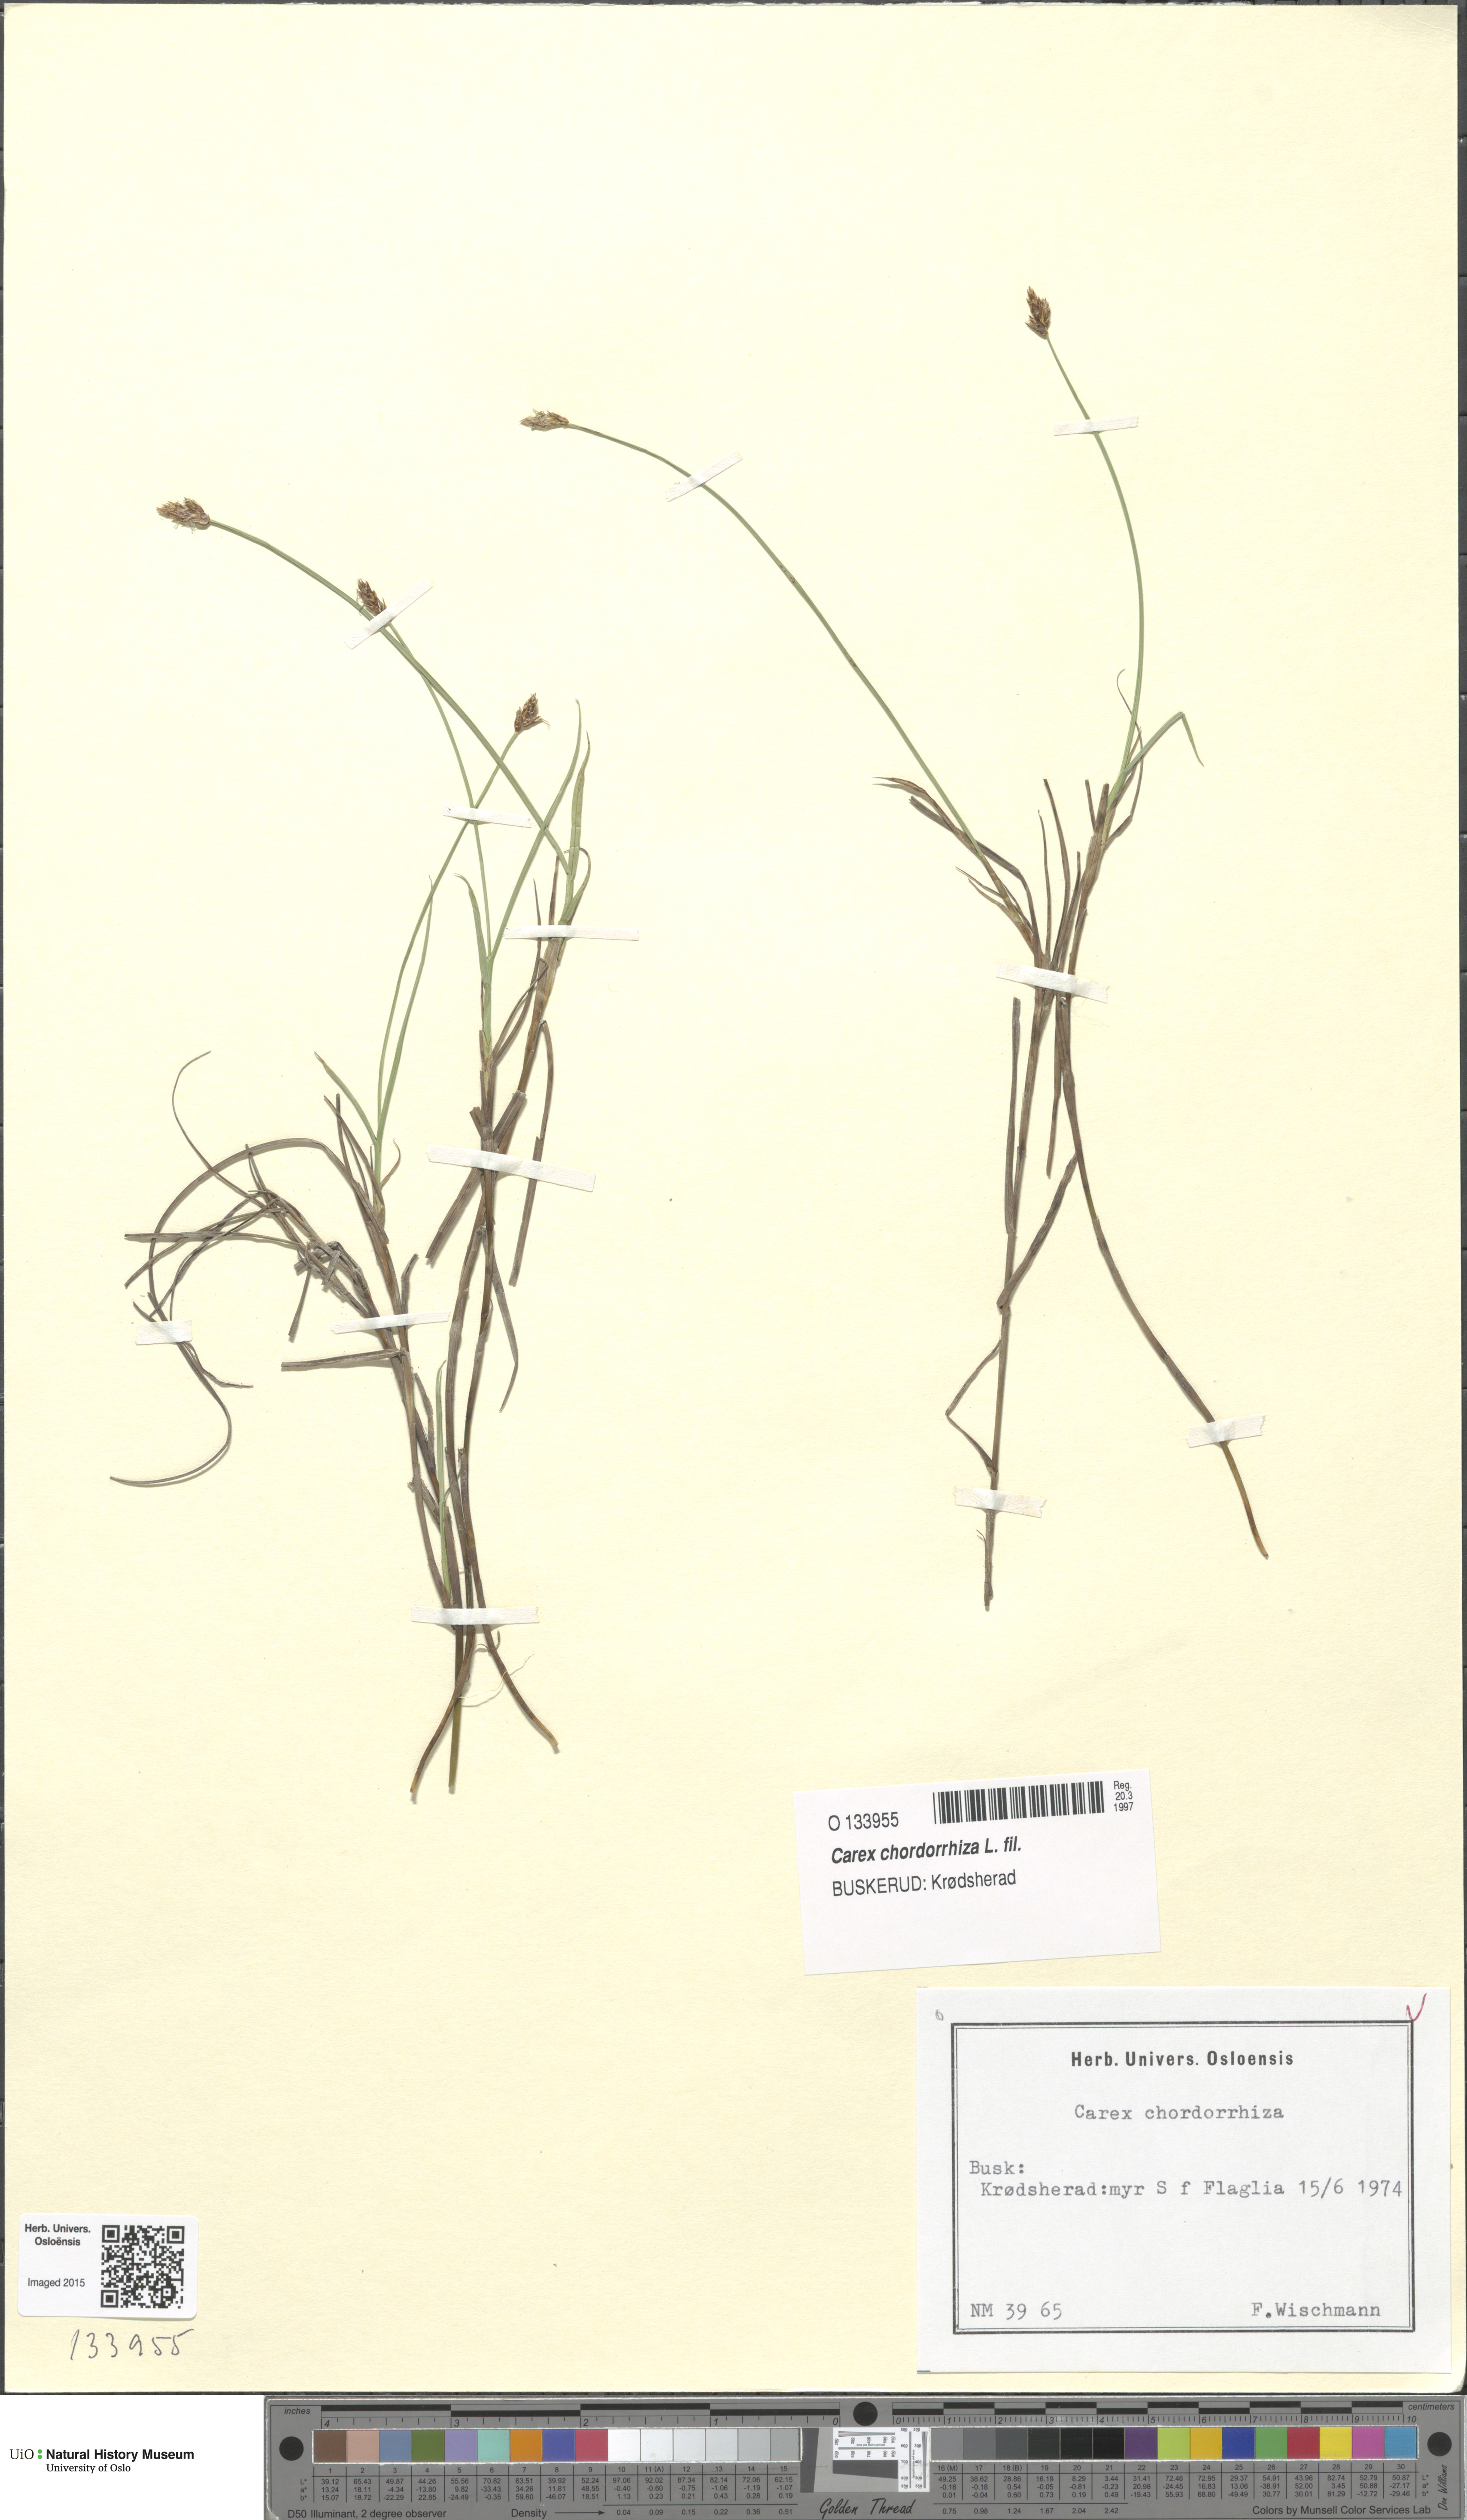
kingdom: Plantae
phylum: Tracheophyta
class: Liliopsida
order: Poales
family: Cyperaceae
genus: Carex
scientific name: Carex chordorrhiza
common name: String sedge
